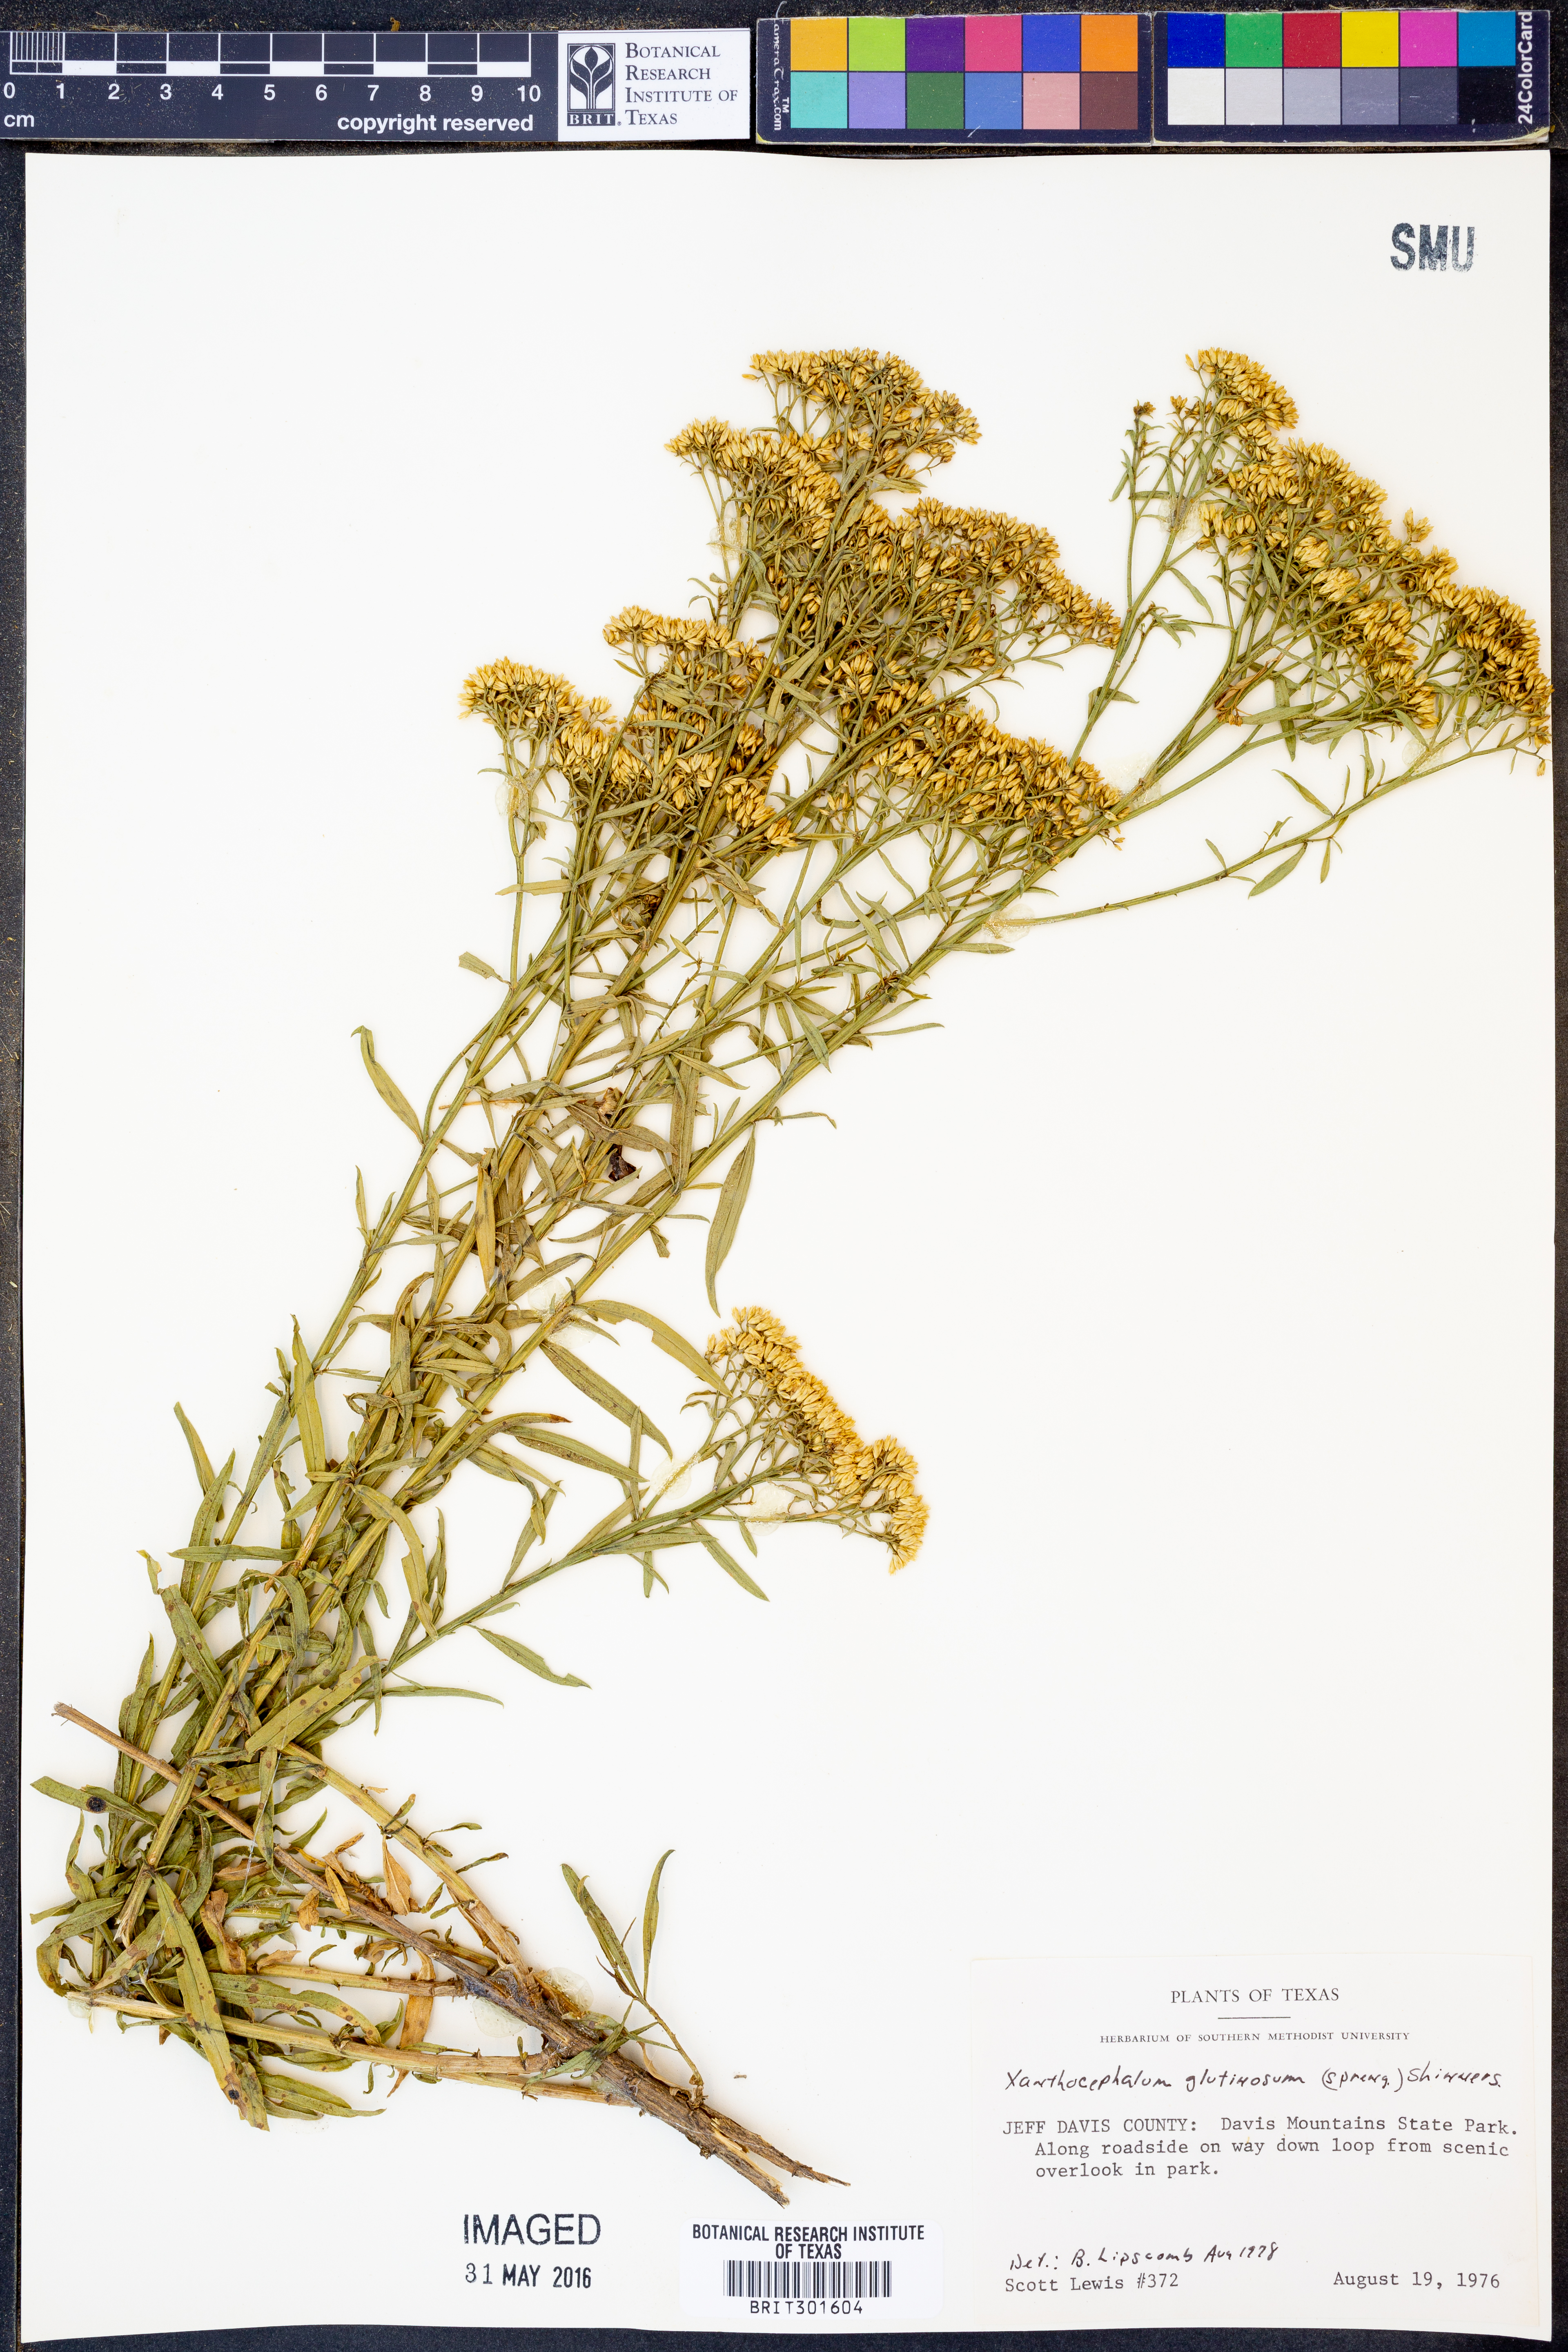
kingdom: Plantae
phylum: Tracheophyta
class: Magnoliopsida
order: Asterales
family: Asteraceae
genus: Gymnosperma
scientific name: Gymnosperma glutinosum
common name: Gumhead
